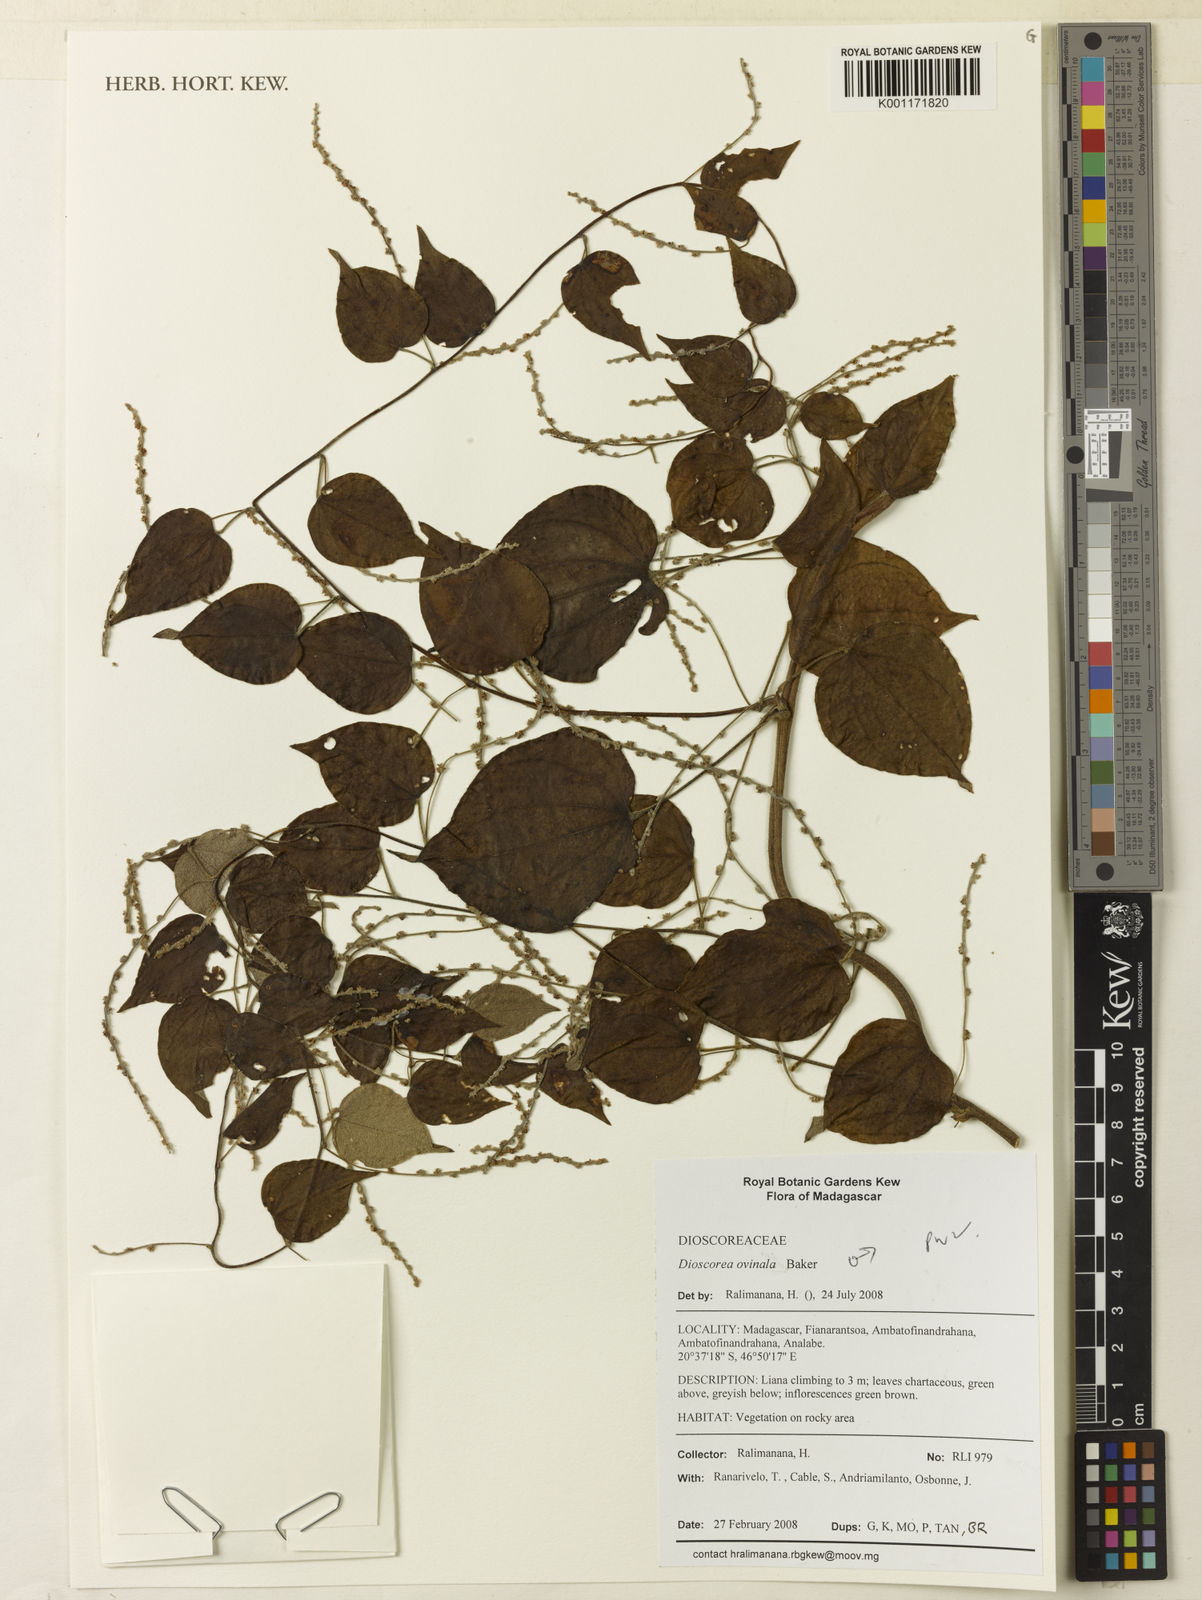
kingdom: Plantae
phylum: Tracheophyta
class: Liliopsida
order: Dioscoreales
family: Dioscoreaceae
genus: Dioscorea
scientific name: Dioscorea ovinala
